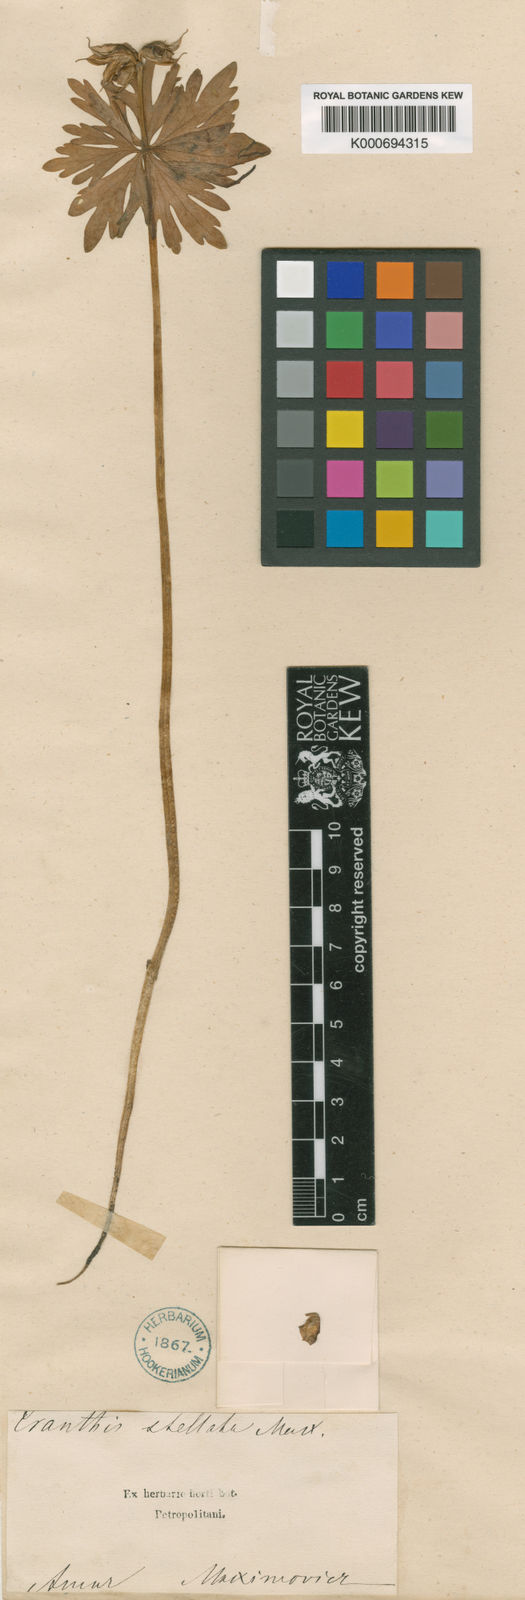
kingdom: Plantae
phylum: Tracheophyta
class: Magnoliopsida
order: Ranunculales
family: Ranunculaceae
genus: Eranthis
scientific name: Eranthis stellata
